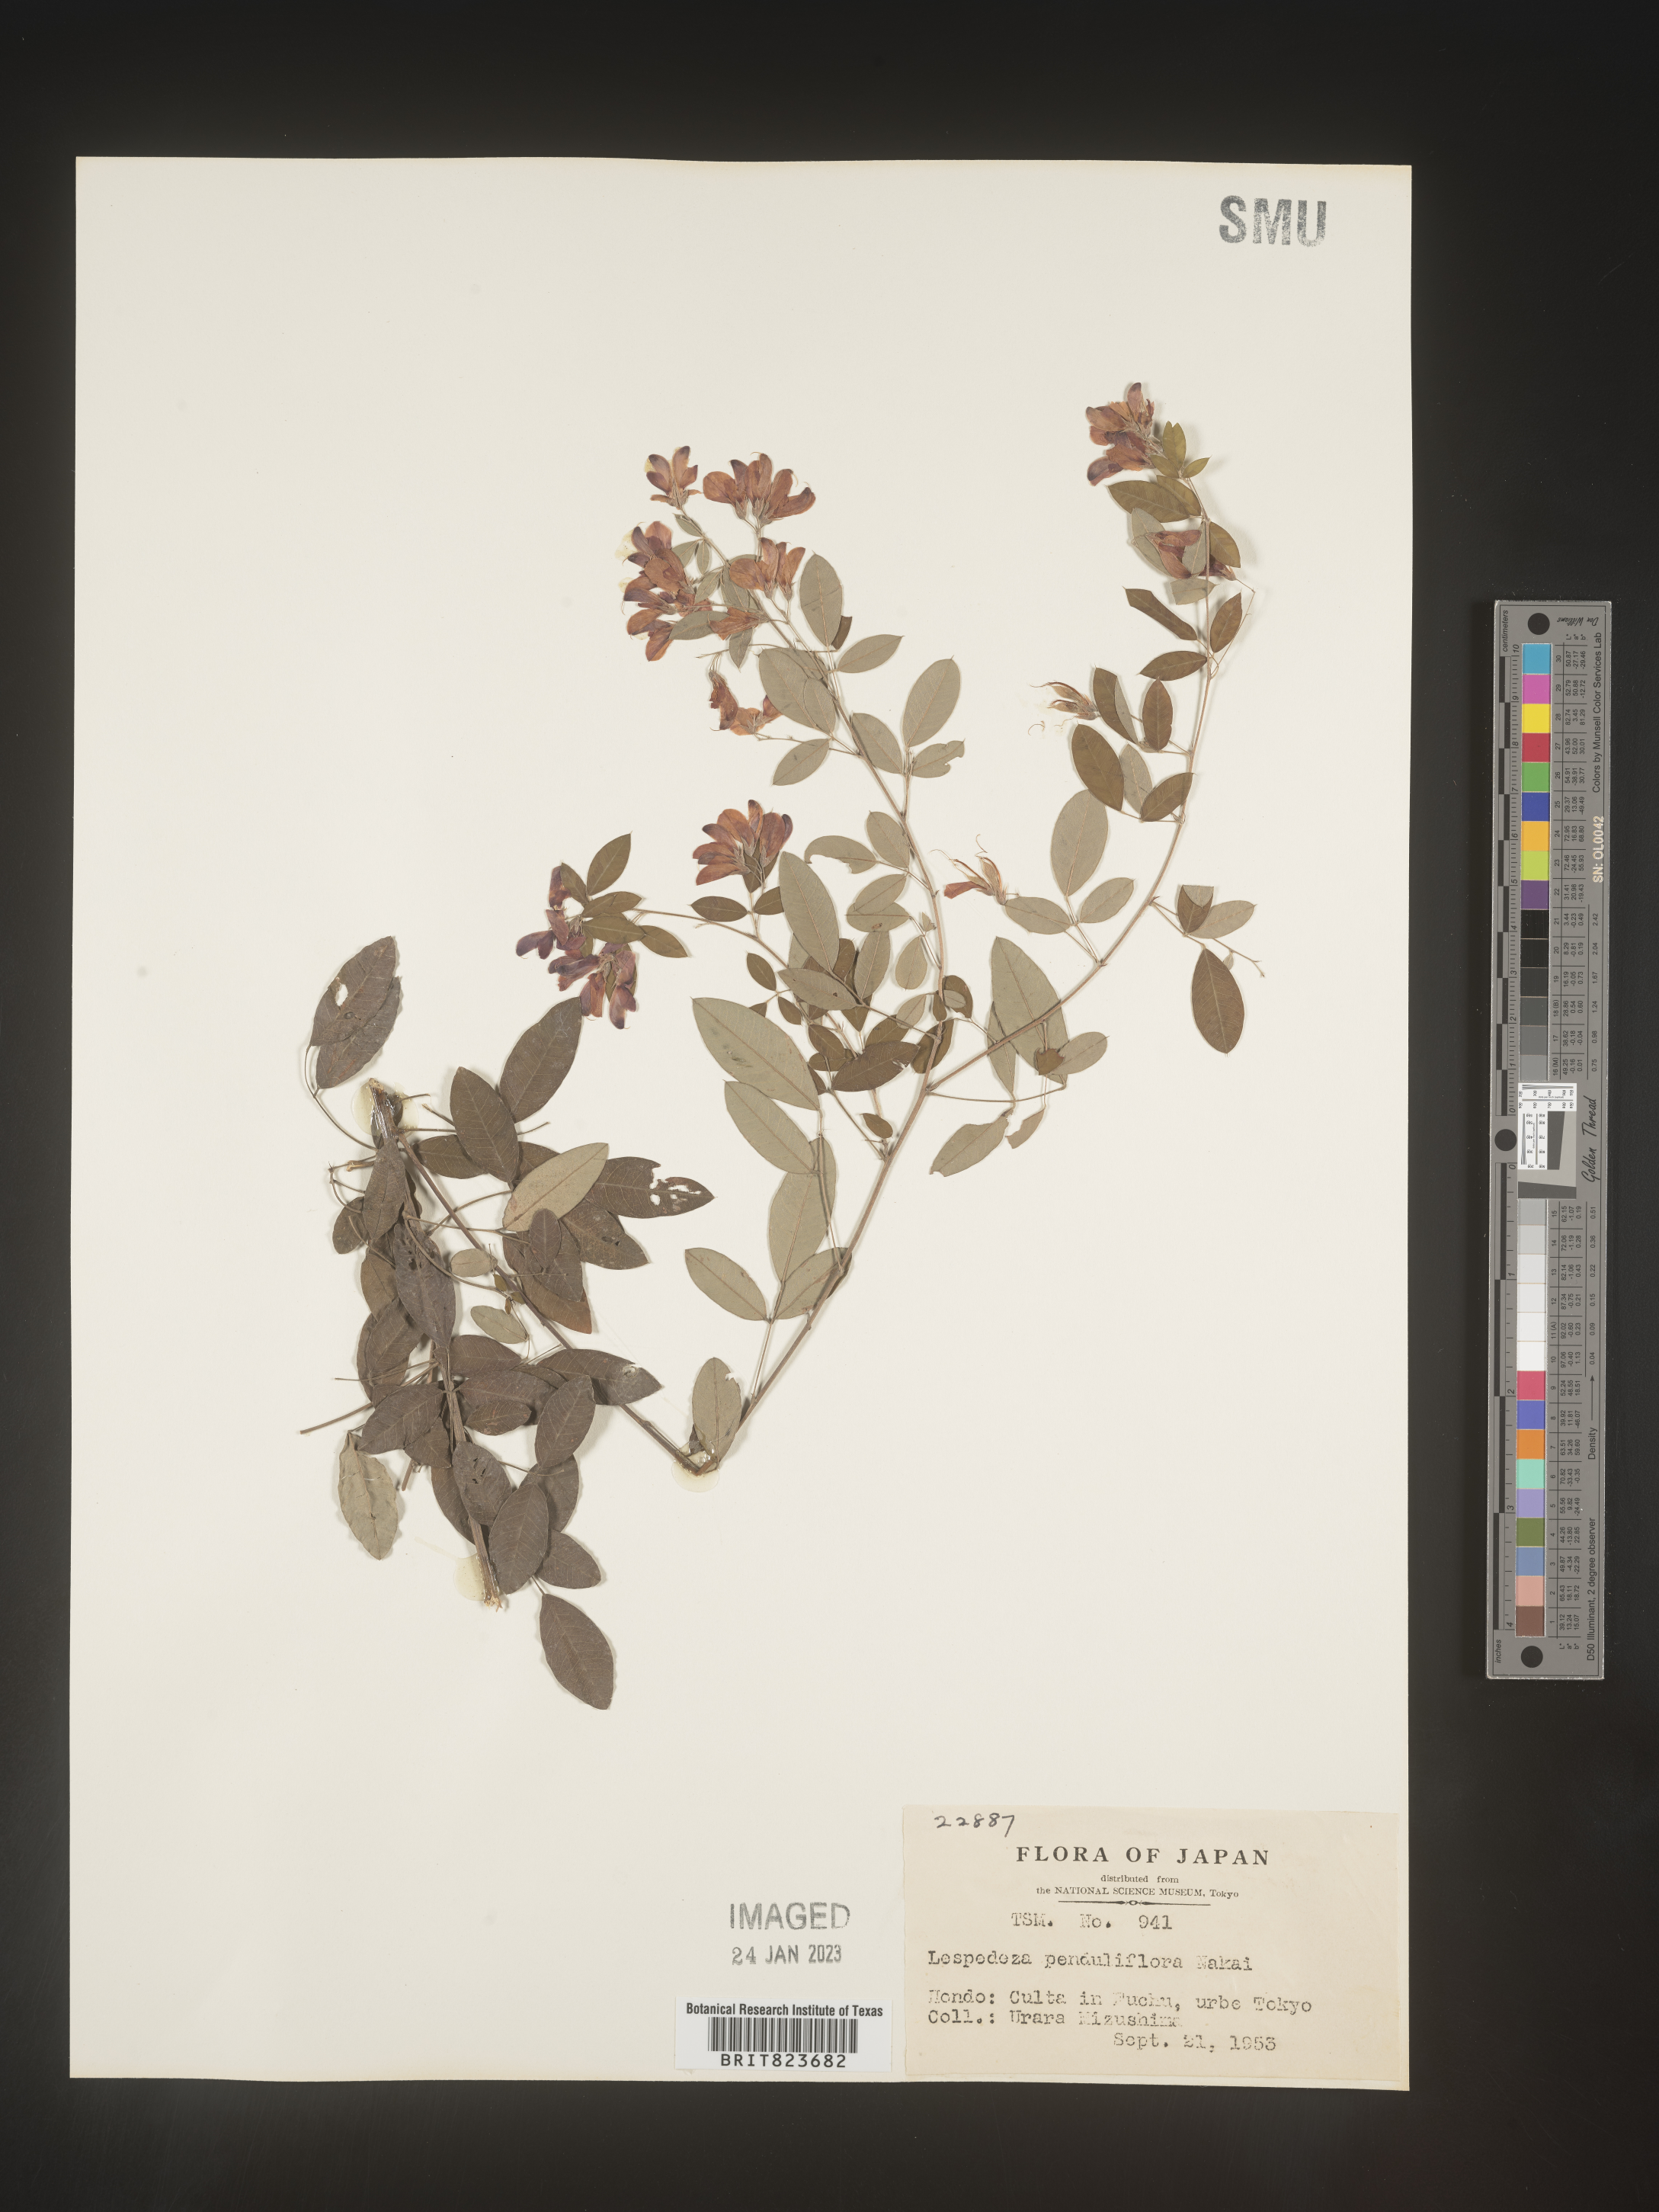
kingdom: Plantae
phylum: Tracheophyta
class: Magnoliopsida
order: Fabales
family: Fabaceae
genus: Lespedeza
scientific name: Lespedeza
